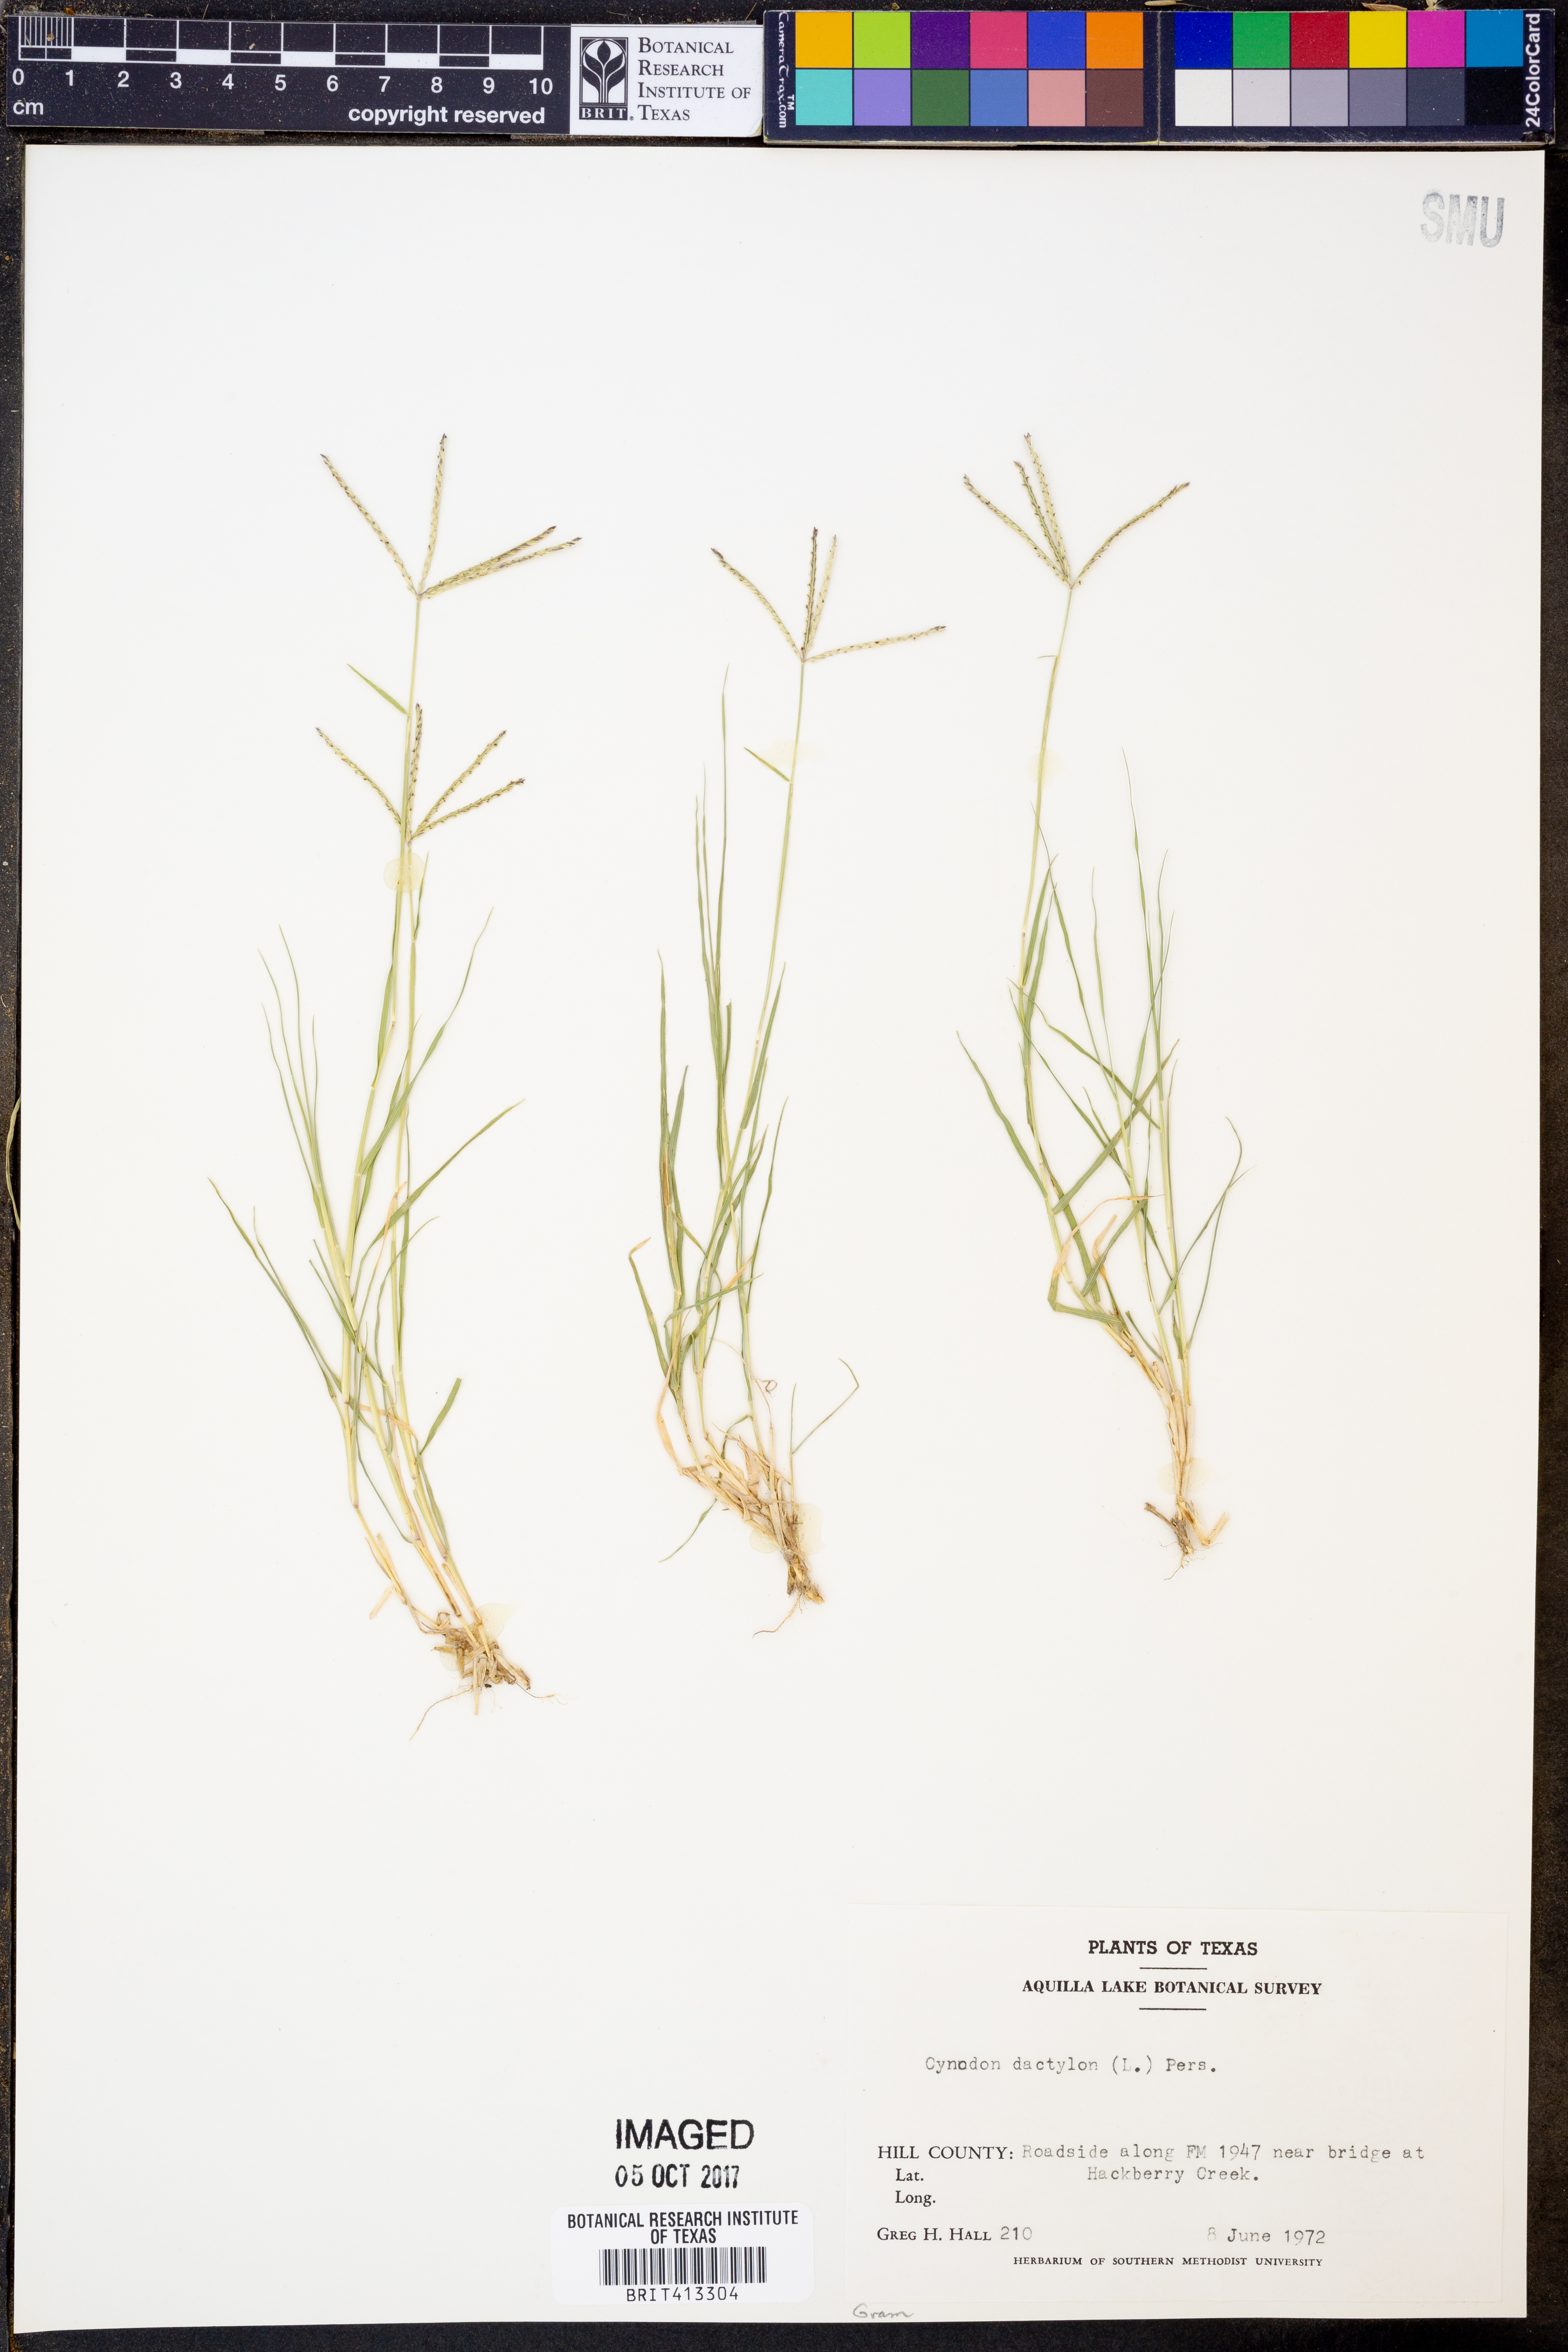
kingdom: Plantae
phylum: Tracheophyta
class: Liliopsida
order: Poales
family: Poaceae
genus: Cynodon
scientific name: Cynodon dactylon
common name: Bermuda grass
